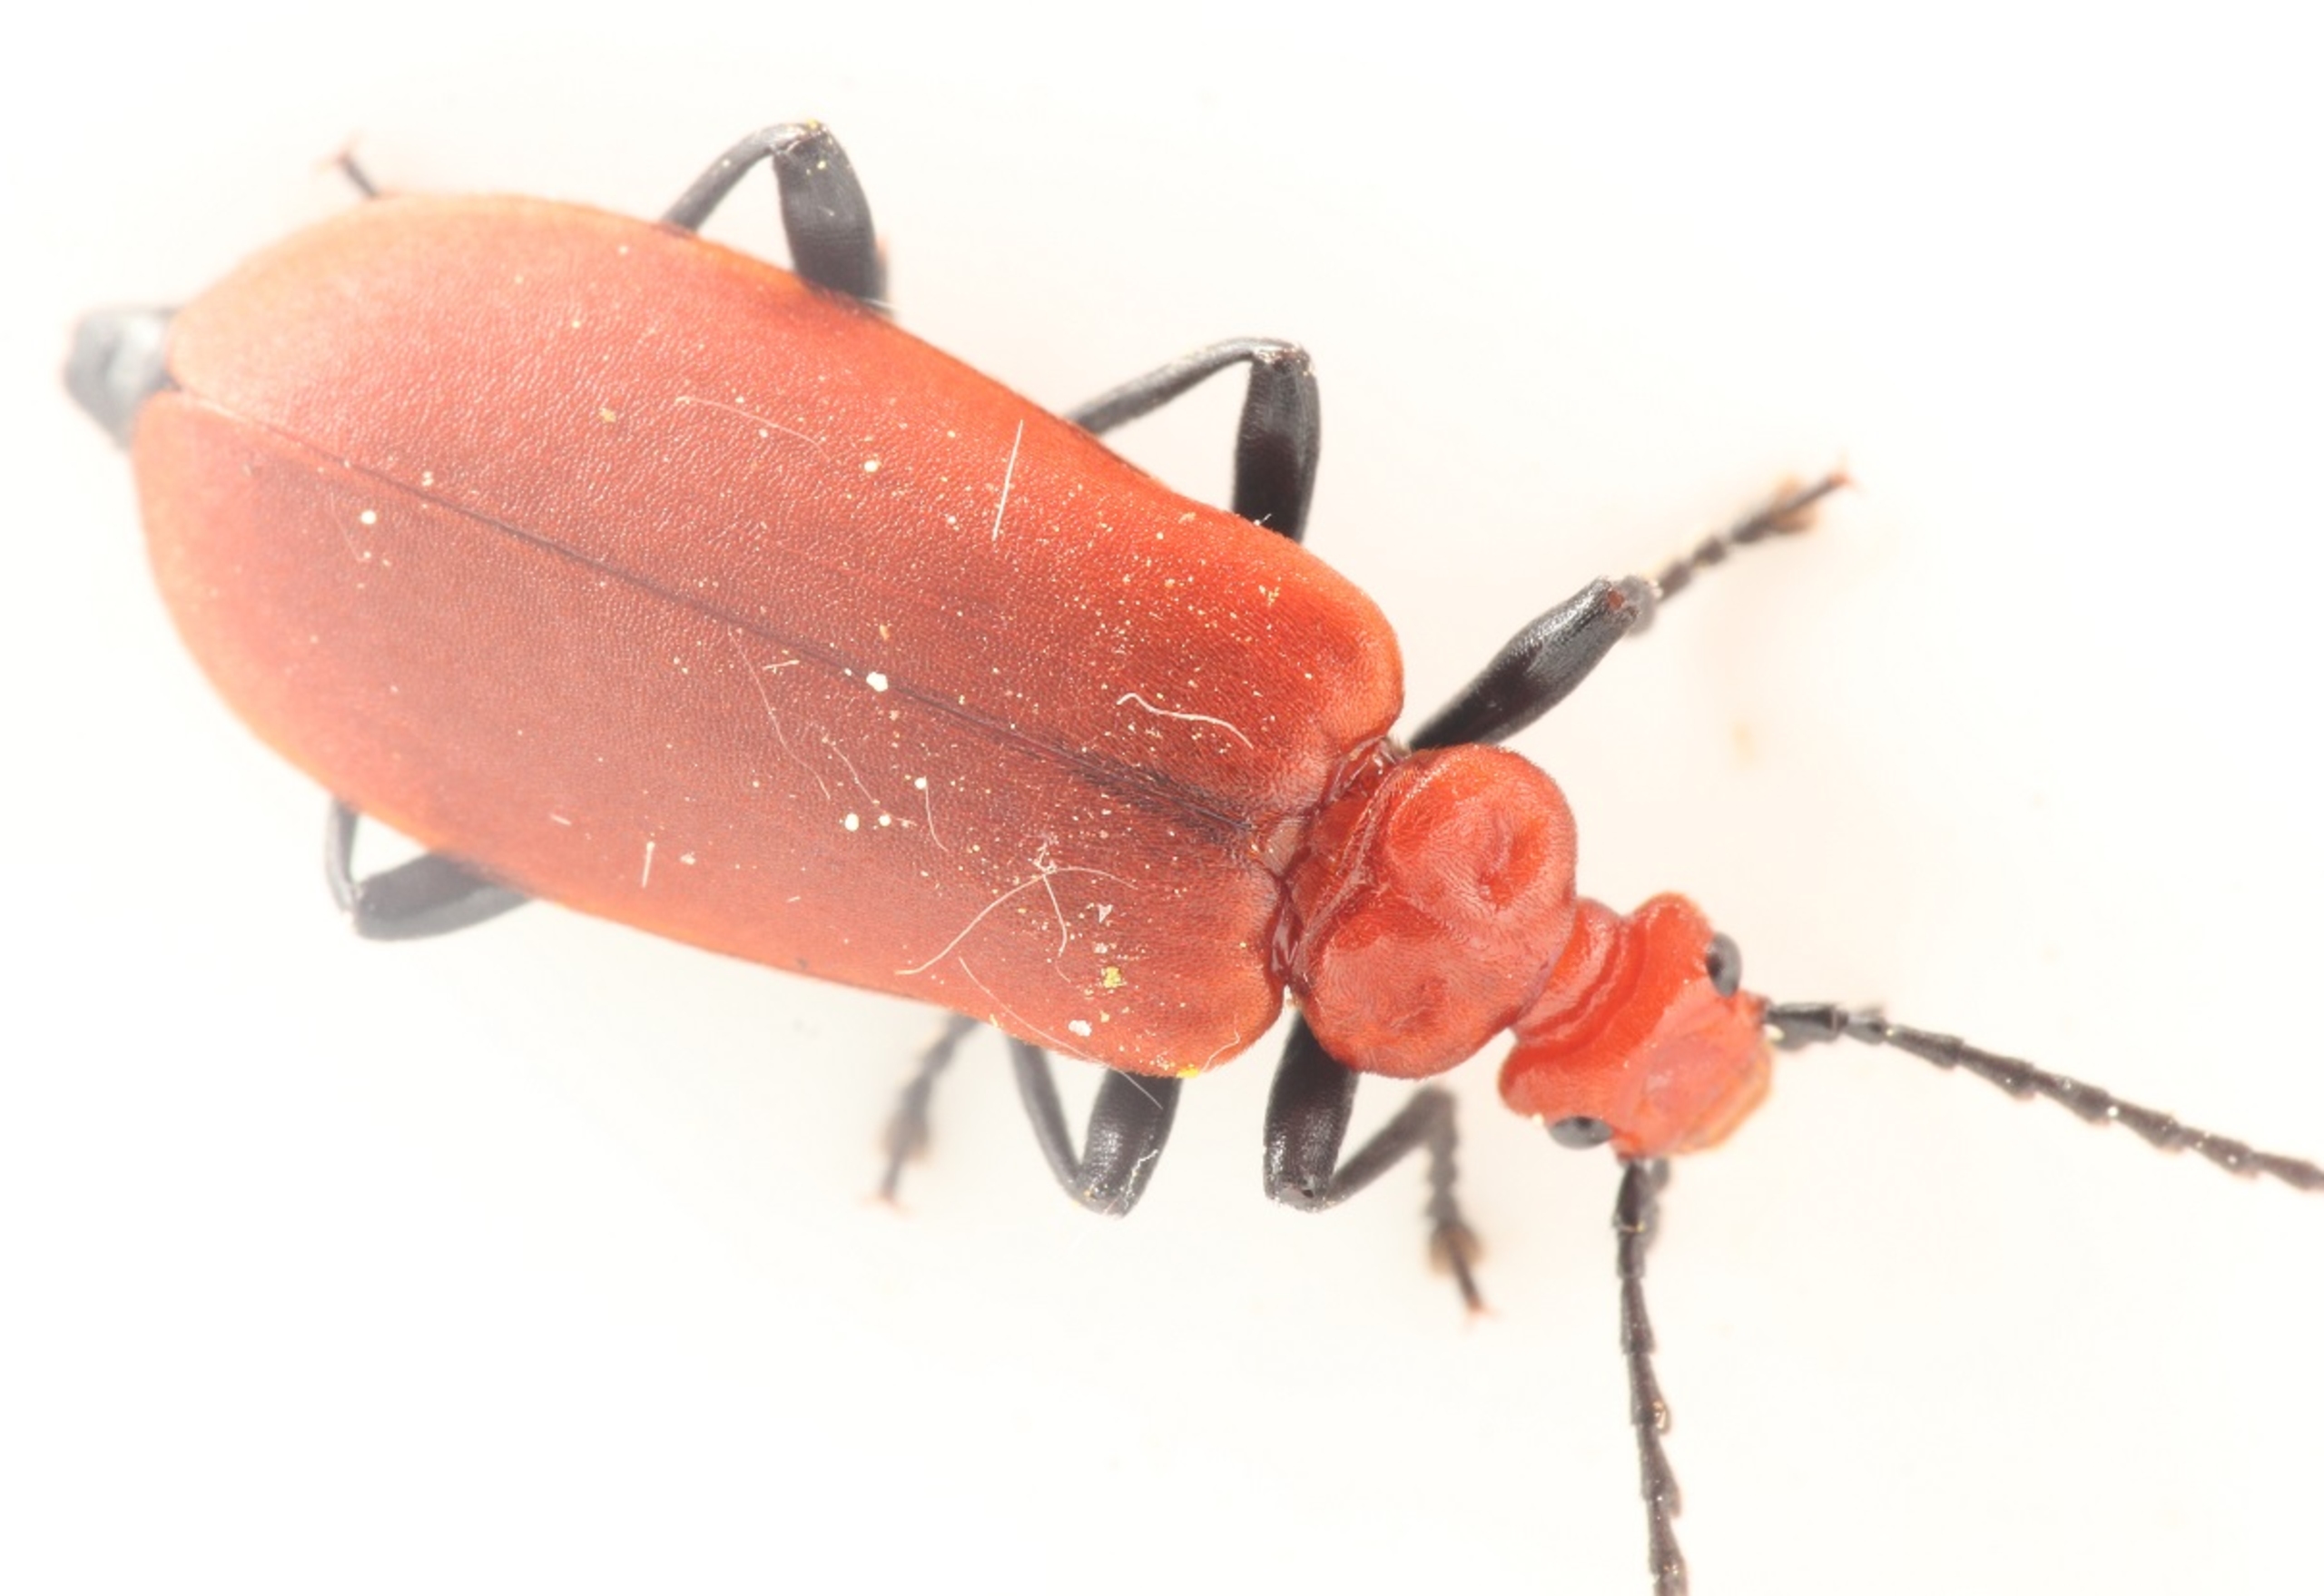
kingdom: Animalia
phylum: Arthropoda
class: Insecta
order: Coleoptera
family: Pyrochroidae
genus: Pyrochroa
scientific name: Pyrochroa serraticornis
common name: Rødhovedet kardinalbille
